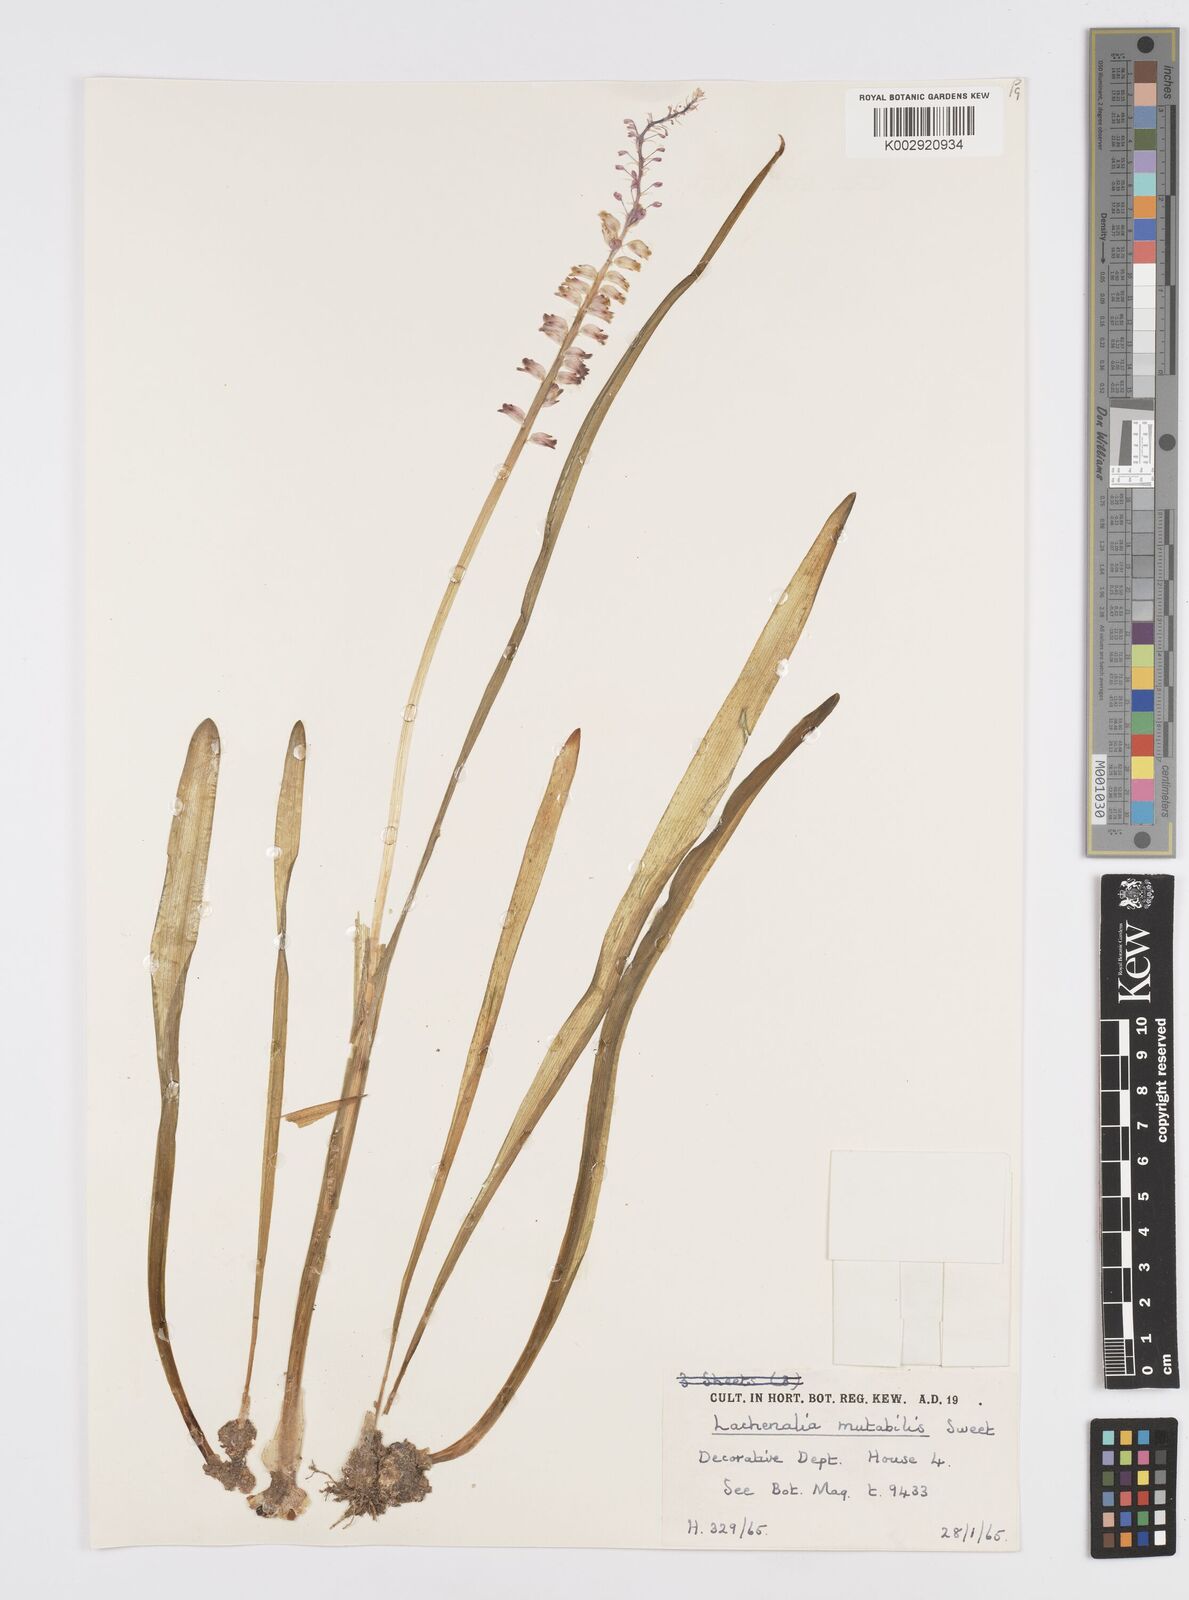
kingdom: Plantae
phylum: Tracheophyta
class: Liliopsida
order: Asparagales
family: Asparagaceae
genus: Lachenalia
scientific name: Lachenalia mutabilis
